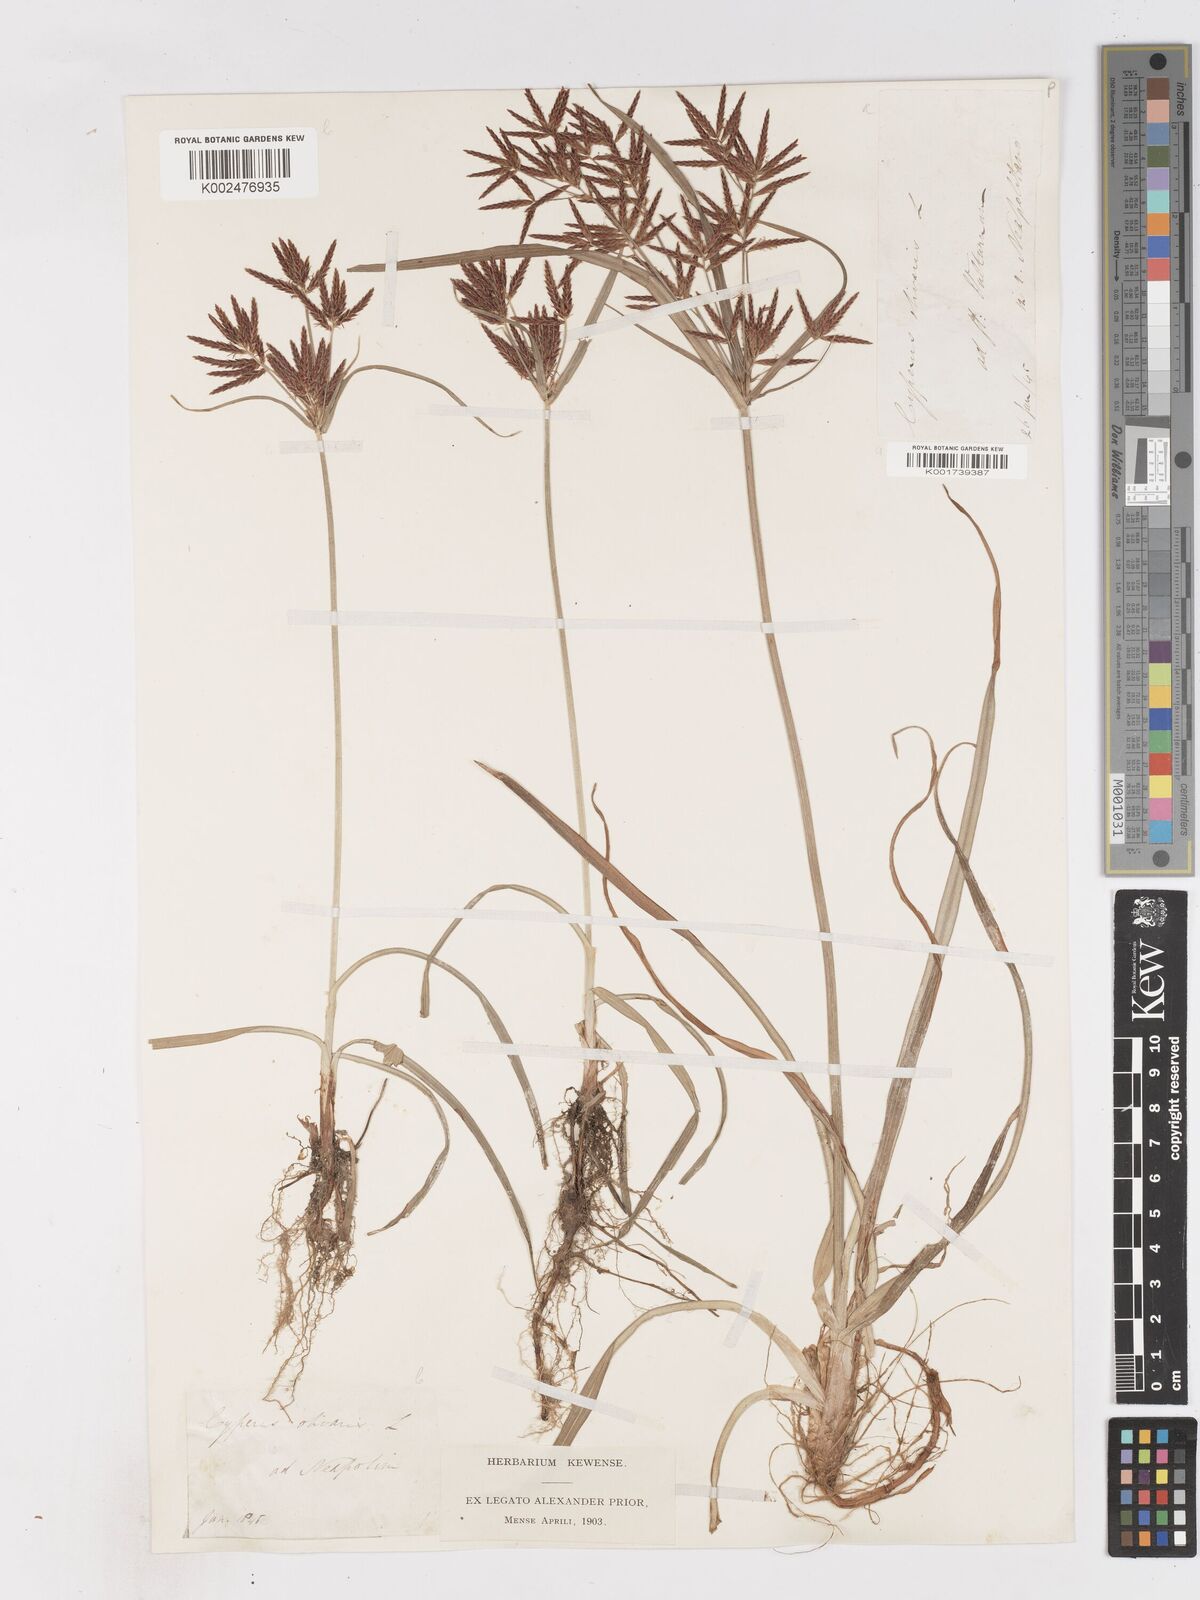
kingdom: Plantae
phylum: Tracheophyta
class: Liliopsida
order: Poales
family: Cyperaceae
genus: Cyperus
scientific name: Cyperus rotundus
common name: Nutgrass
